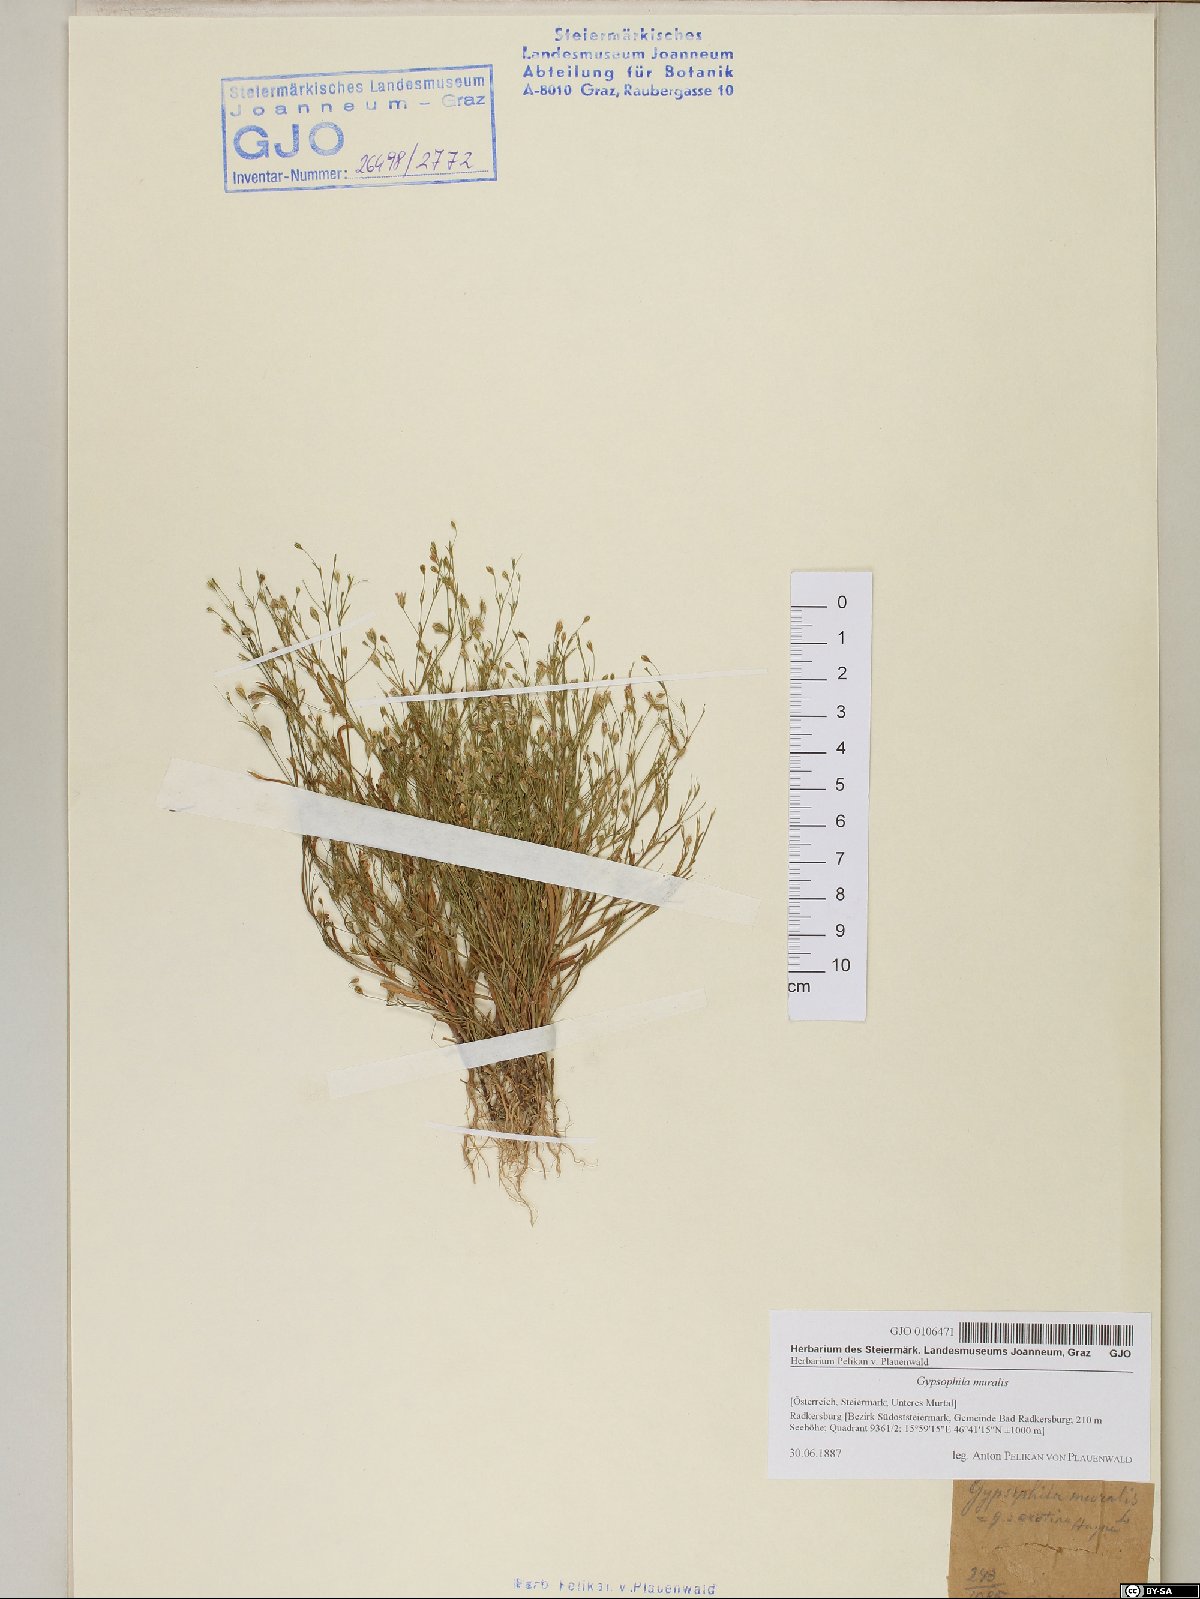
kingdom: Plantae
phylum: Tracheophyta
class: Magnoliopsida
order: Caryophyllales
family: Caryophyllaceae
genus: Psammophiliella
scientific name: Psammophiliella muralis
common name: Cushion baby's-breath
